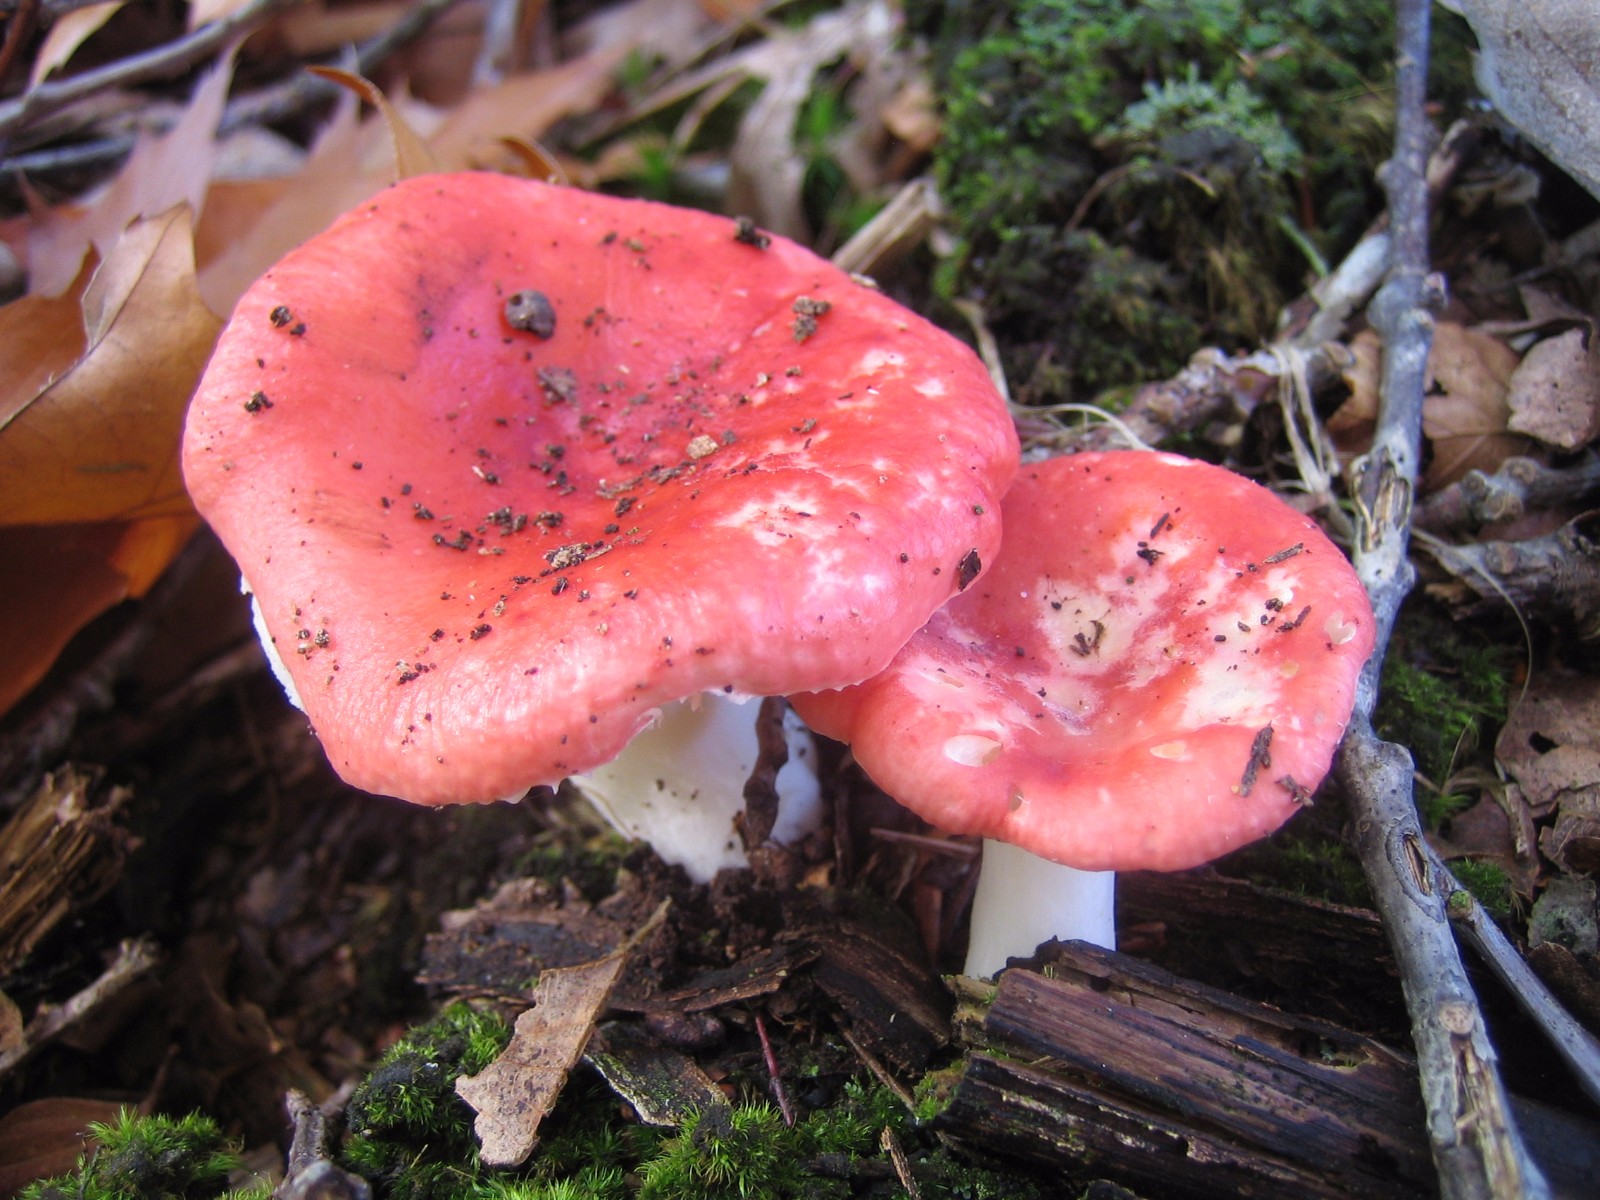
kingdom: Fungi
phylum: Basidiomycota
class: Agaricomycetes
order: Russulales
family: Russulaceae
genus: Russula
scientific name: Russula
